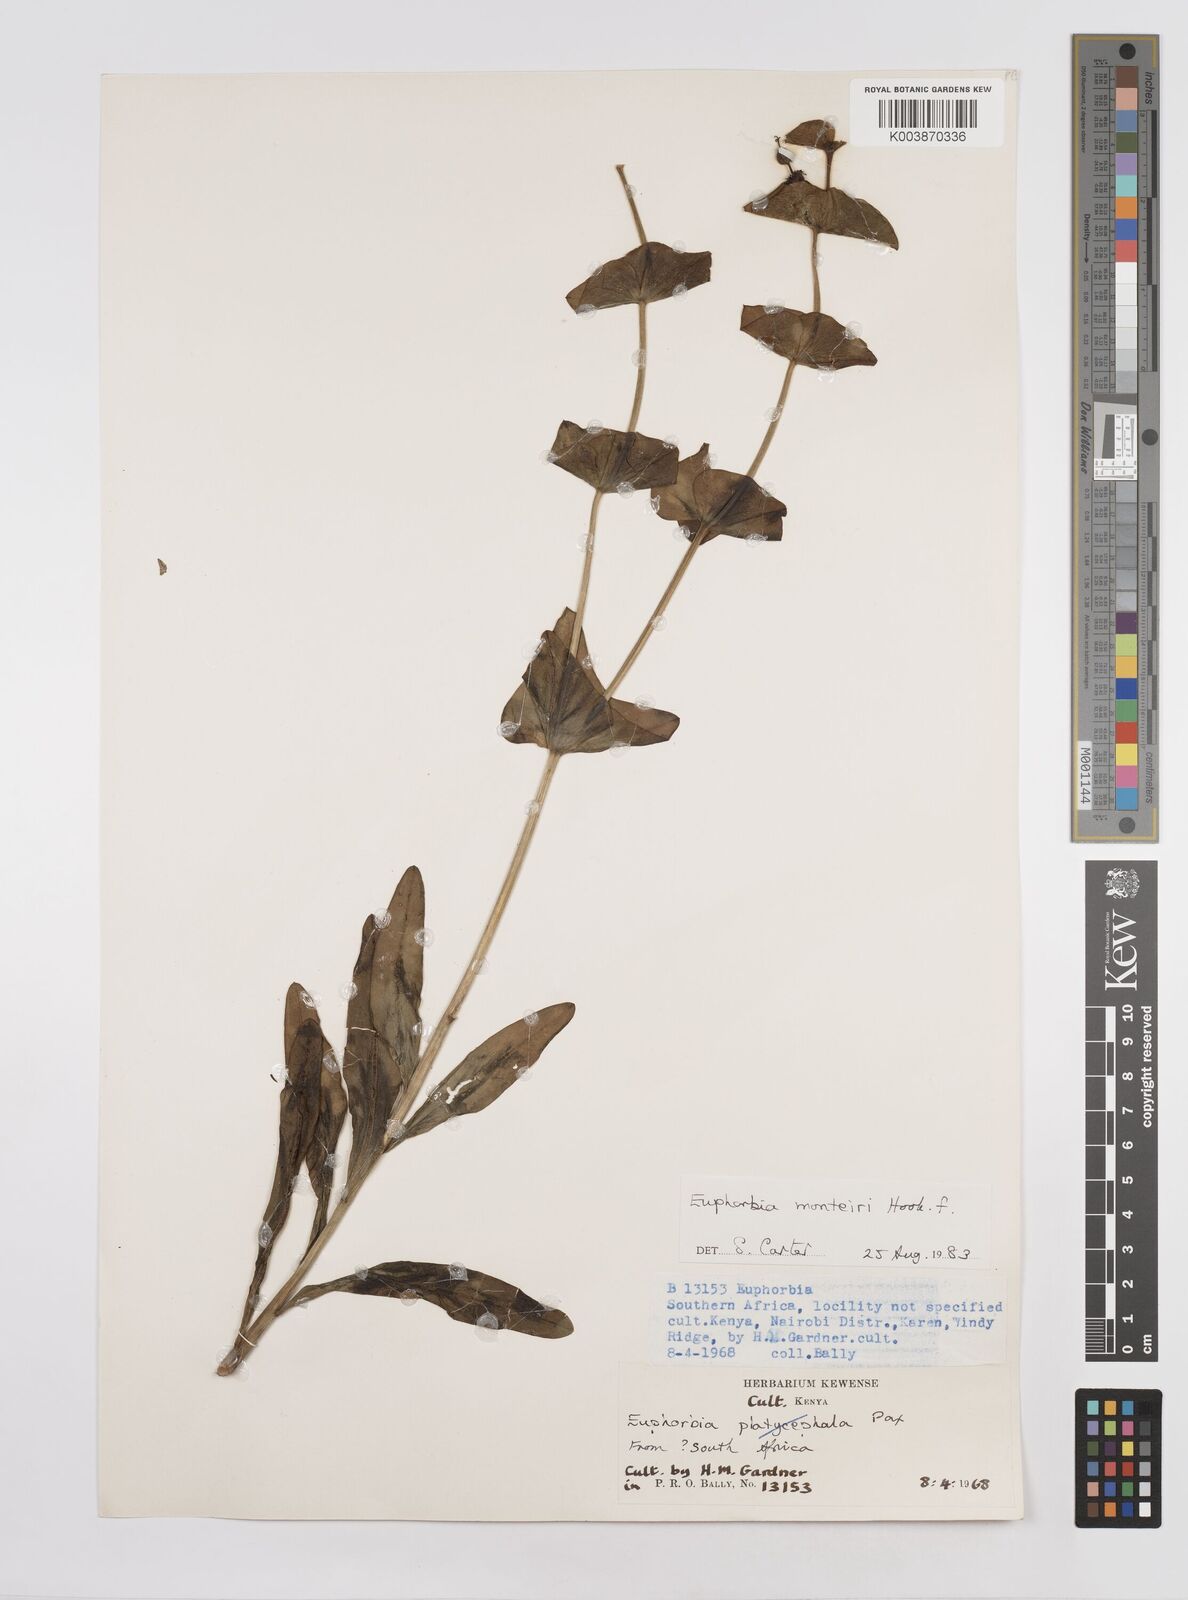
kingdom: Plantae
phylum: Tracheophyta
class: Magnoliopsida
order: Malpighiales
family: Euphorbiaceae
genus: Euphorbia
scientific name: Euphorbia monteiroi
